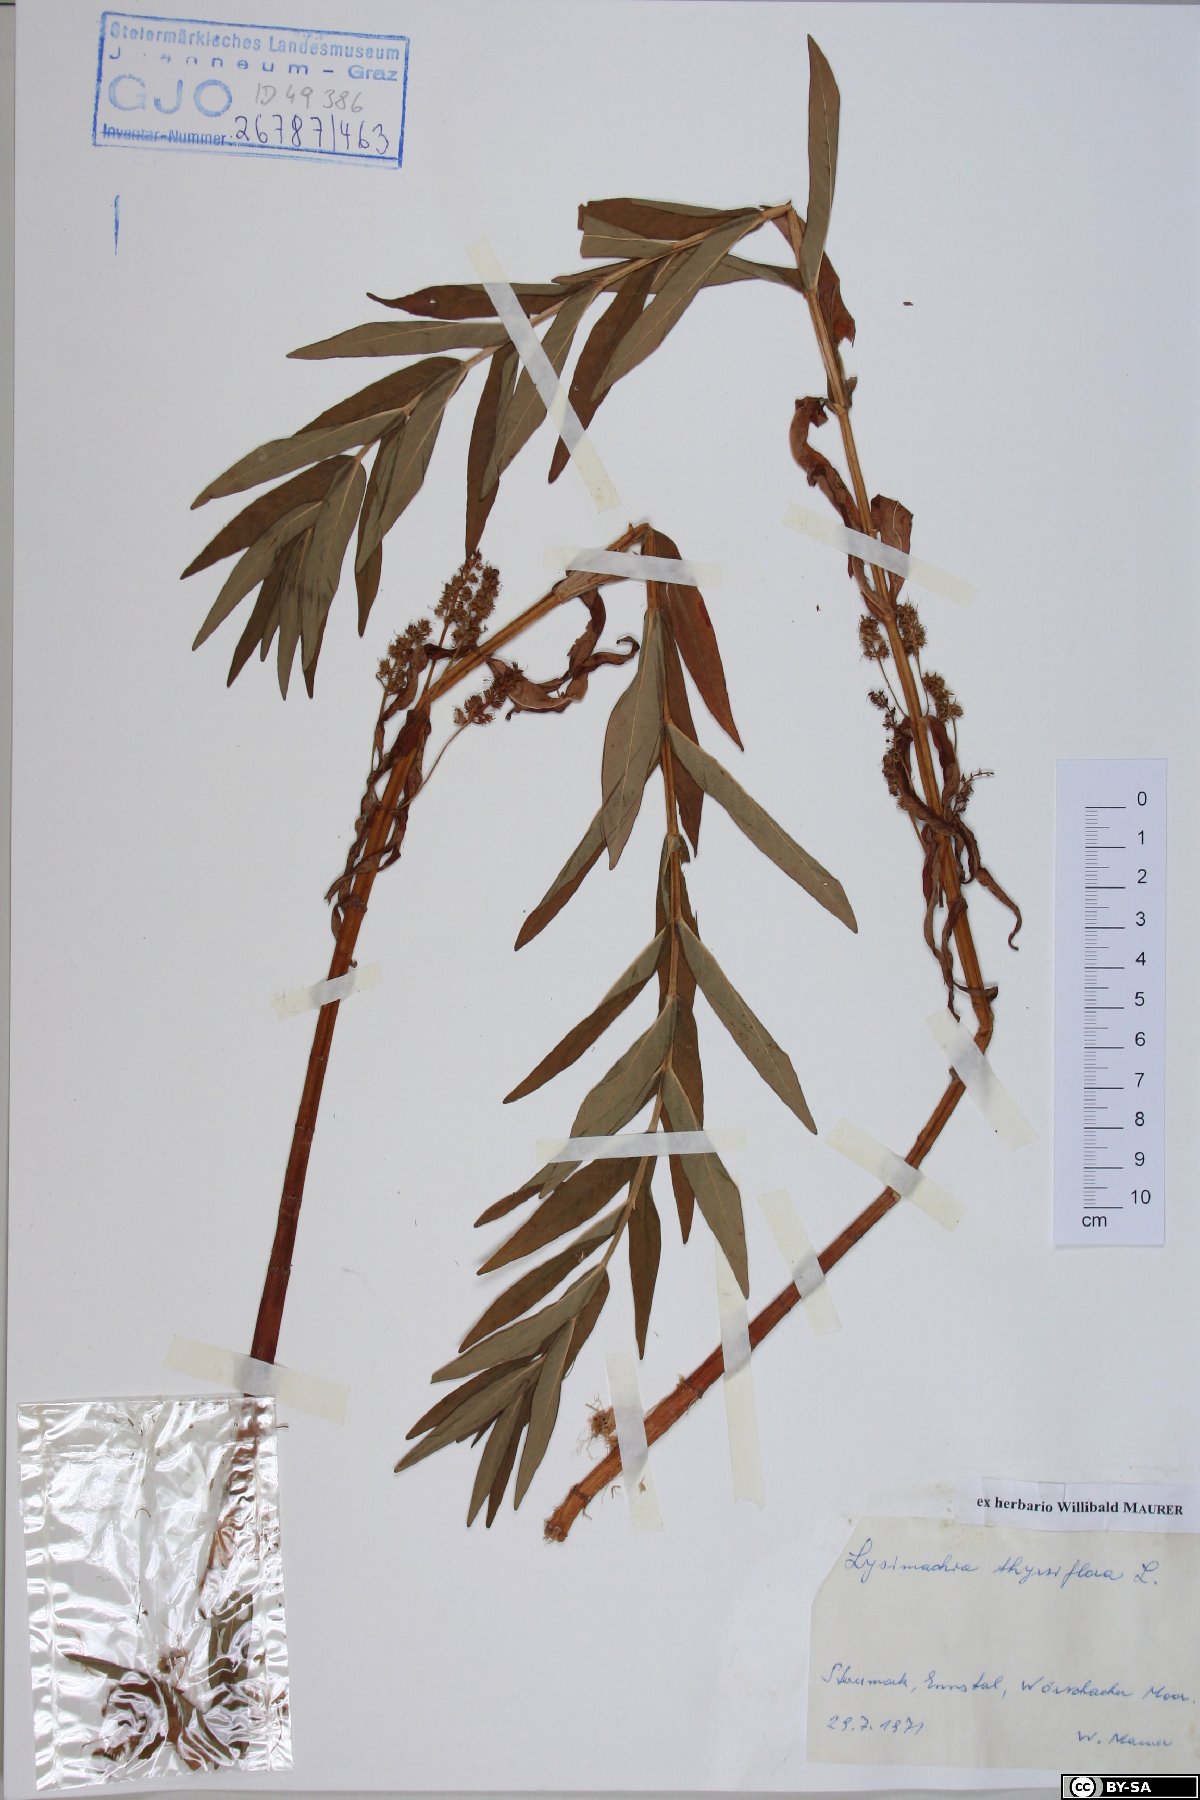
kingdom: Plantae
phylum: Tracheophyta
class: Magnoliopsida
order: Ericales
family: Primulaceae
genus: Lysimachia
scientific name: Lysimachia thyrsiflora
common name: Tufted loosestrife
